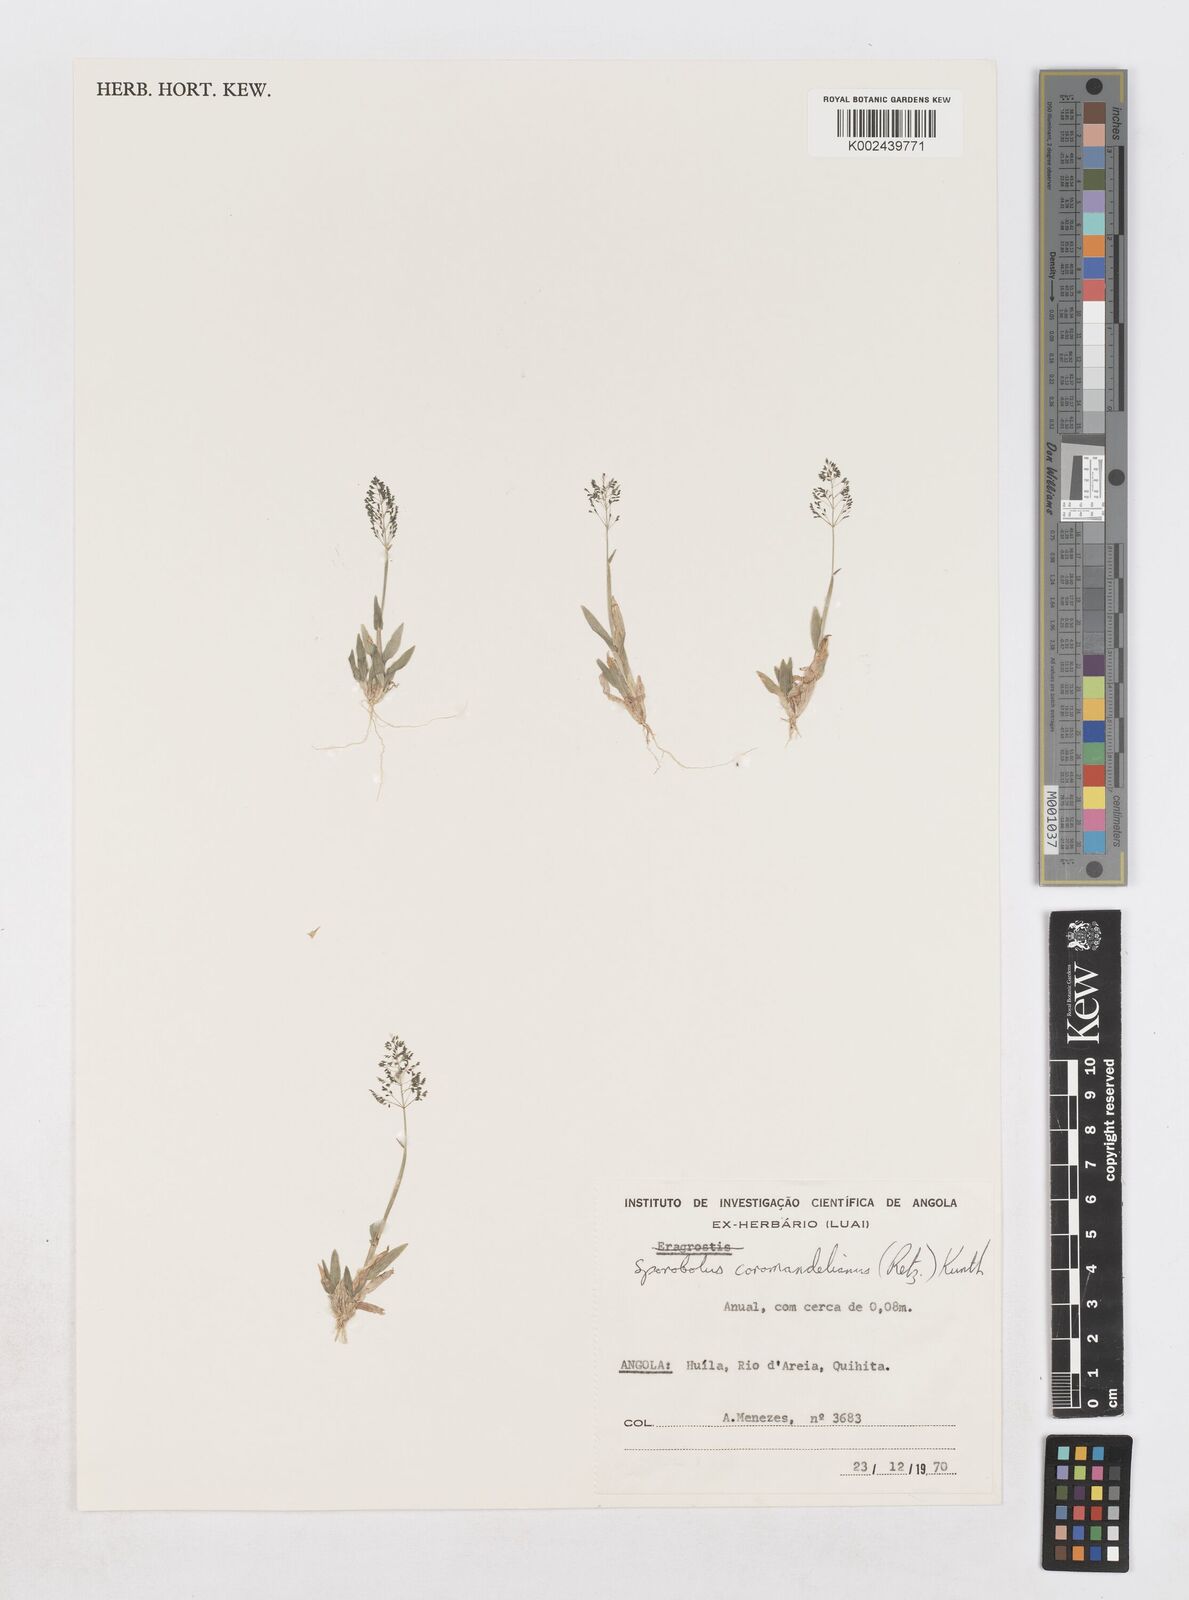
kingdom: Plantae
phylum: Tracheophyta
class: Liliopsida
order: Poales
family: Poaceae
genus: Sporobolus
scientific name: Sporobolus coromandelianus
